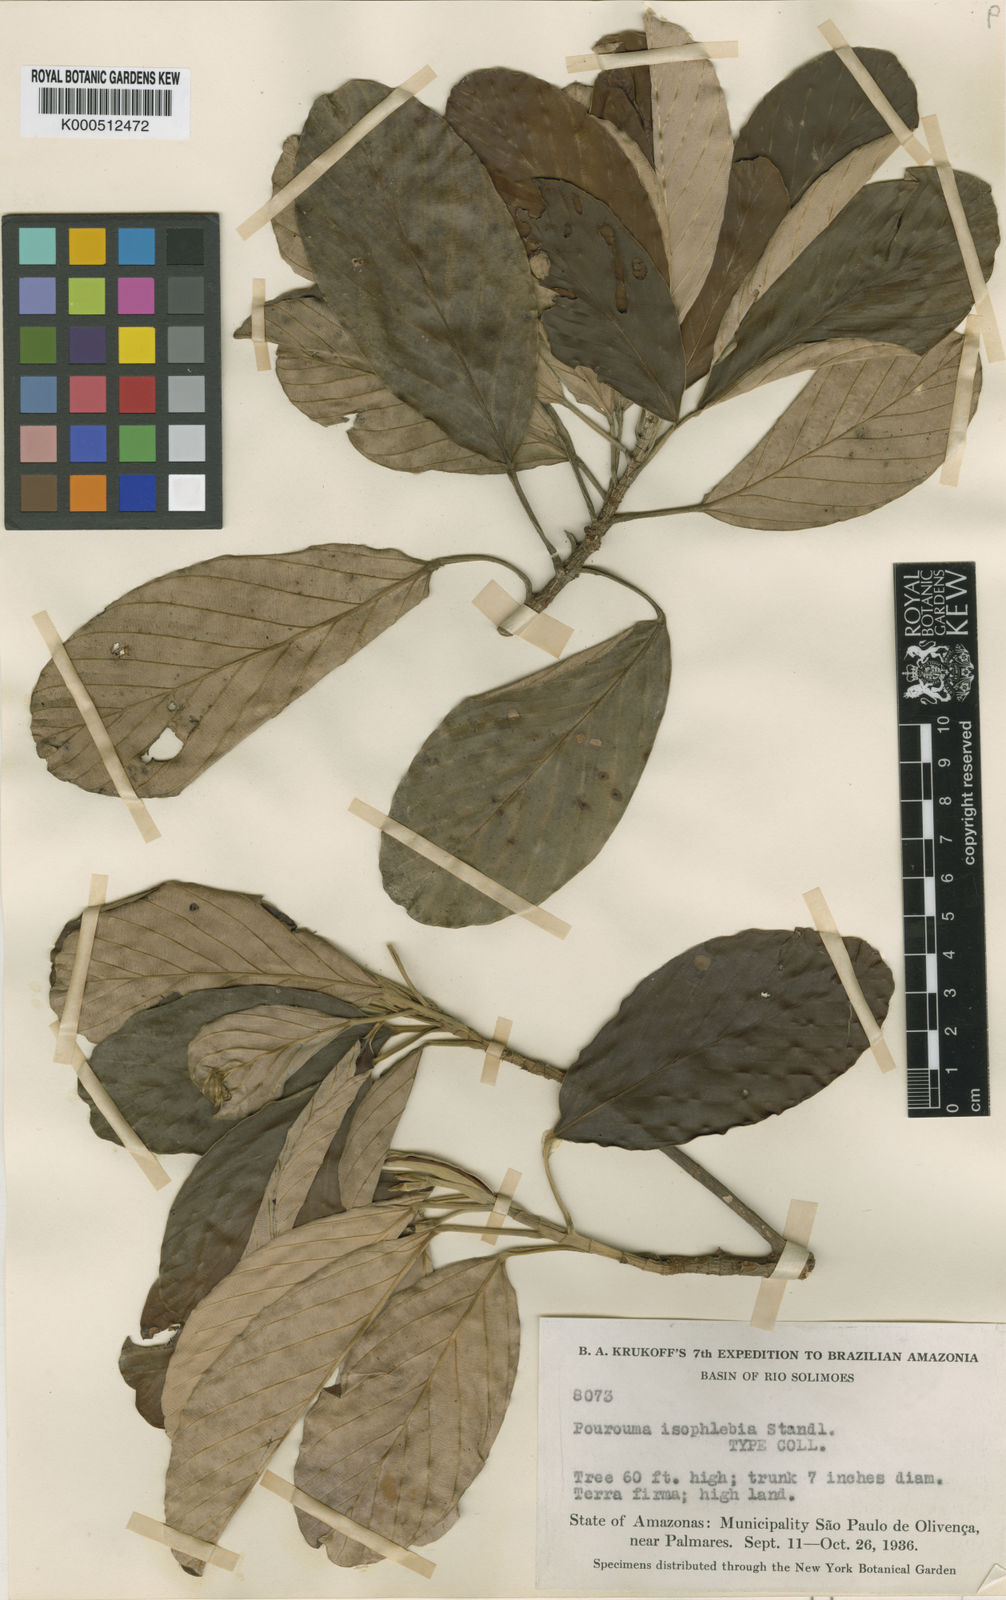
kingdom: Plantae
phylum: Tracheophyta
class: Magnoliopsida
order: Rosales
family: Urticaceae
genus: Pourouma
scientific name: Pourouma minor
